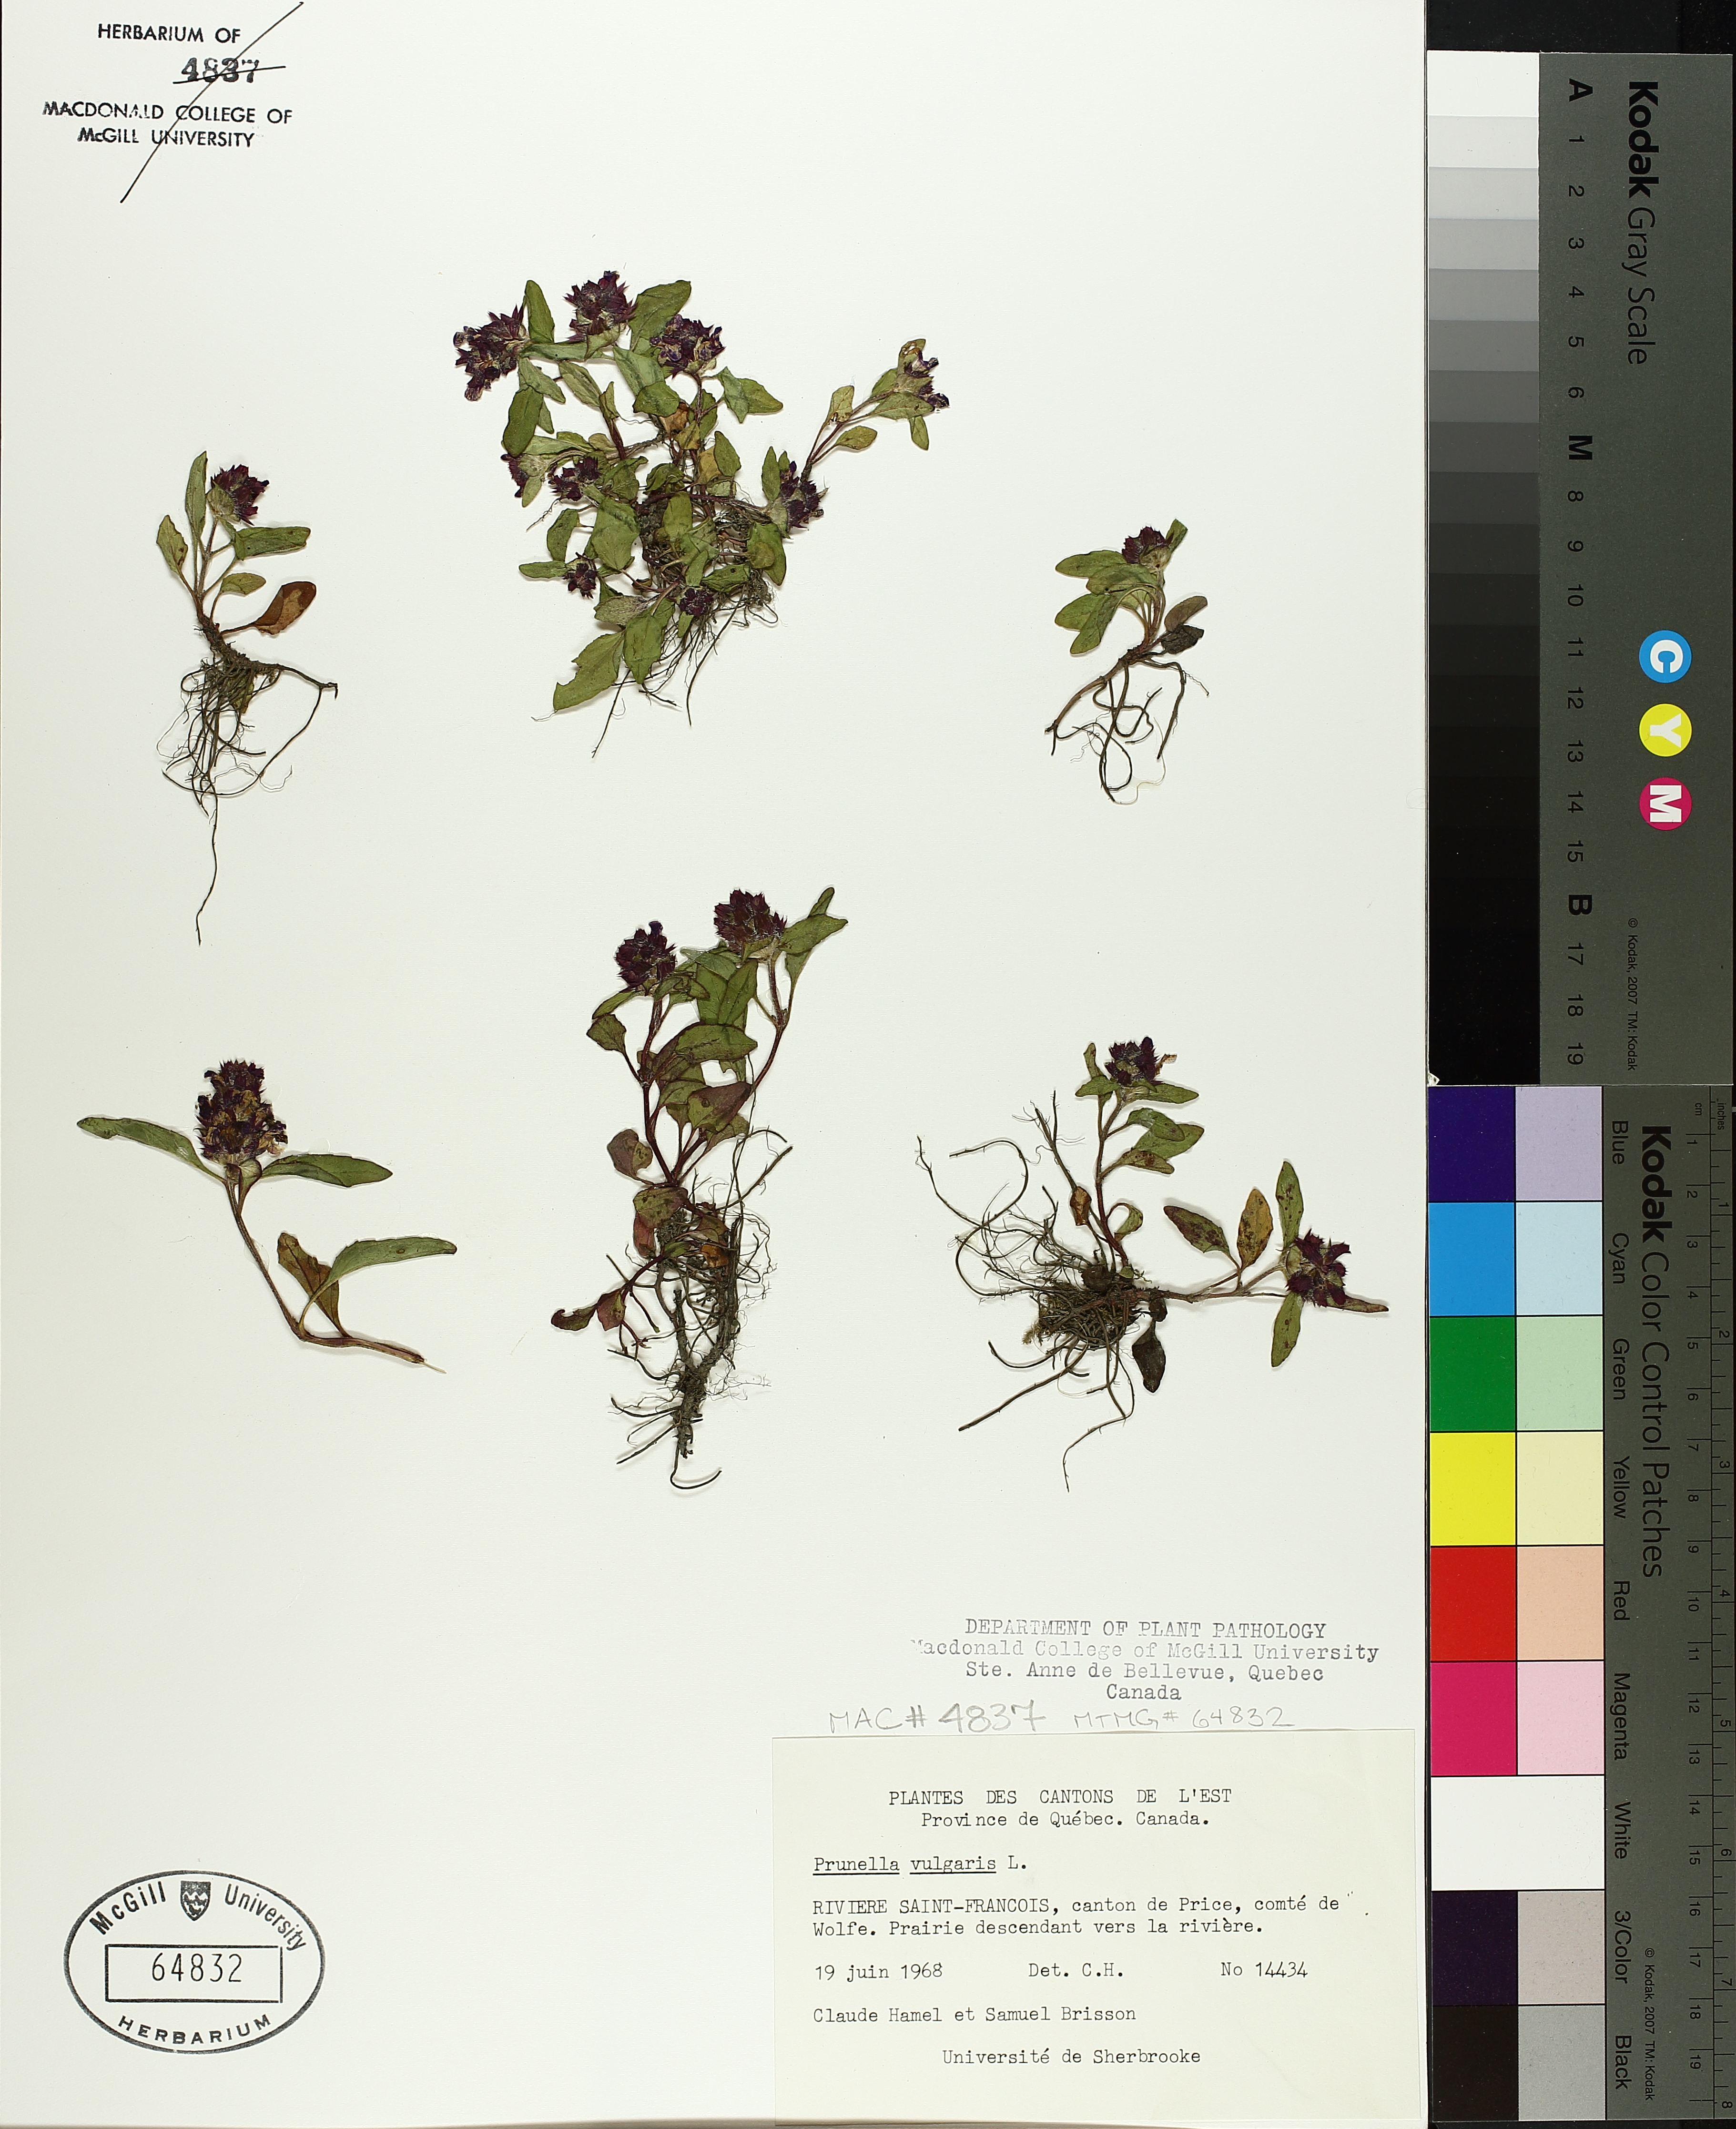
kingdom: Plantae
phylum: Tracheophyta
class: Magnoliopsida
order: Lamiales
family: Lamiaceae
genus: Prunella
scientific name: Prunella vulgaris
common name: Heal-all
